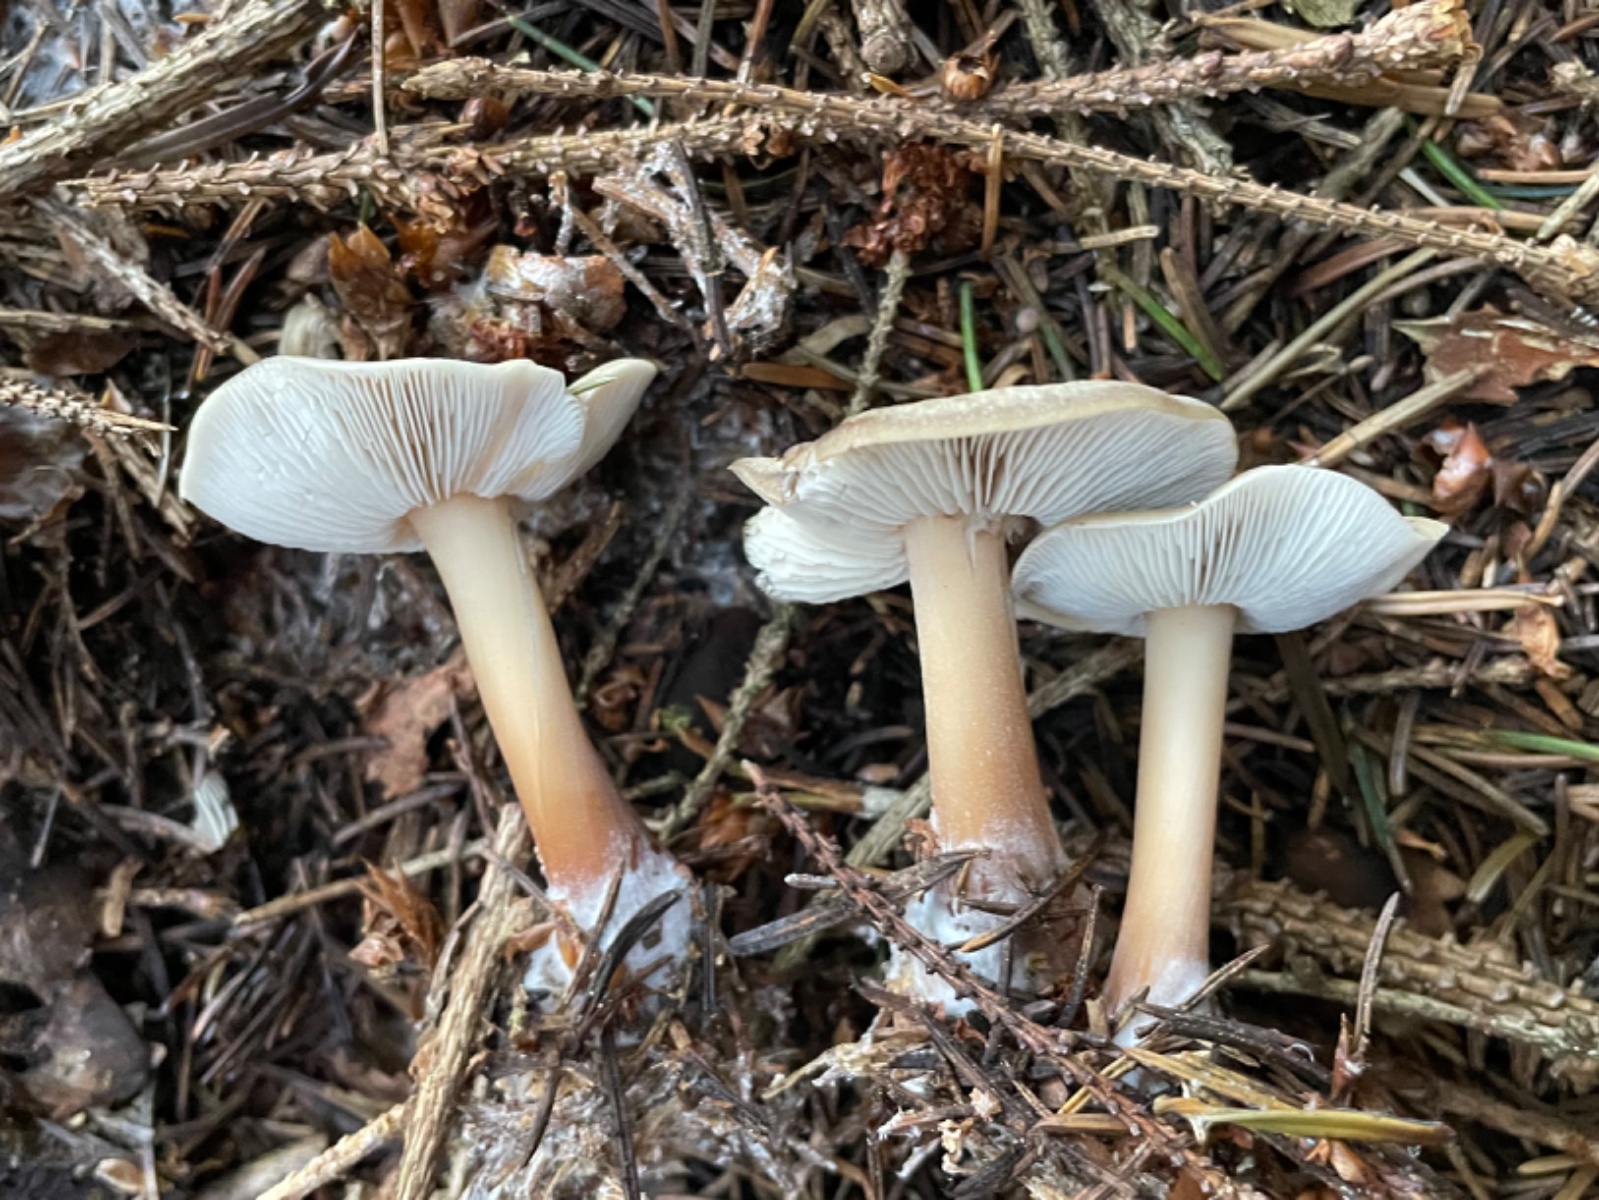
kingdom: Fungi
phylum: Basidiomycota
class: Agaricomycetes
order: Agaricales
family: Omphalotaceae
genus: Rhodocollybia
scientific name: Rhodocollybia asema
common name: horngrå fladhat
